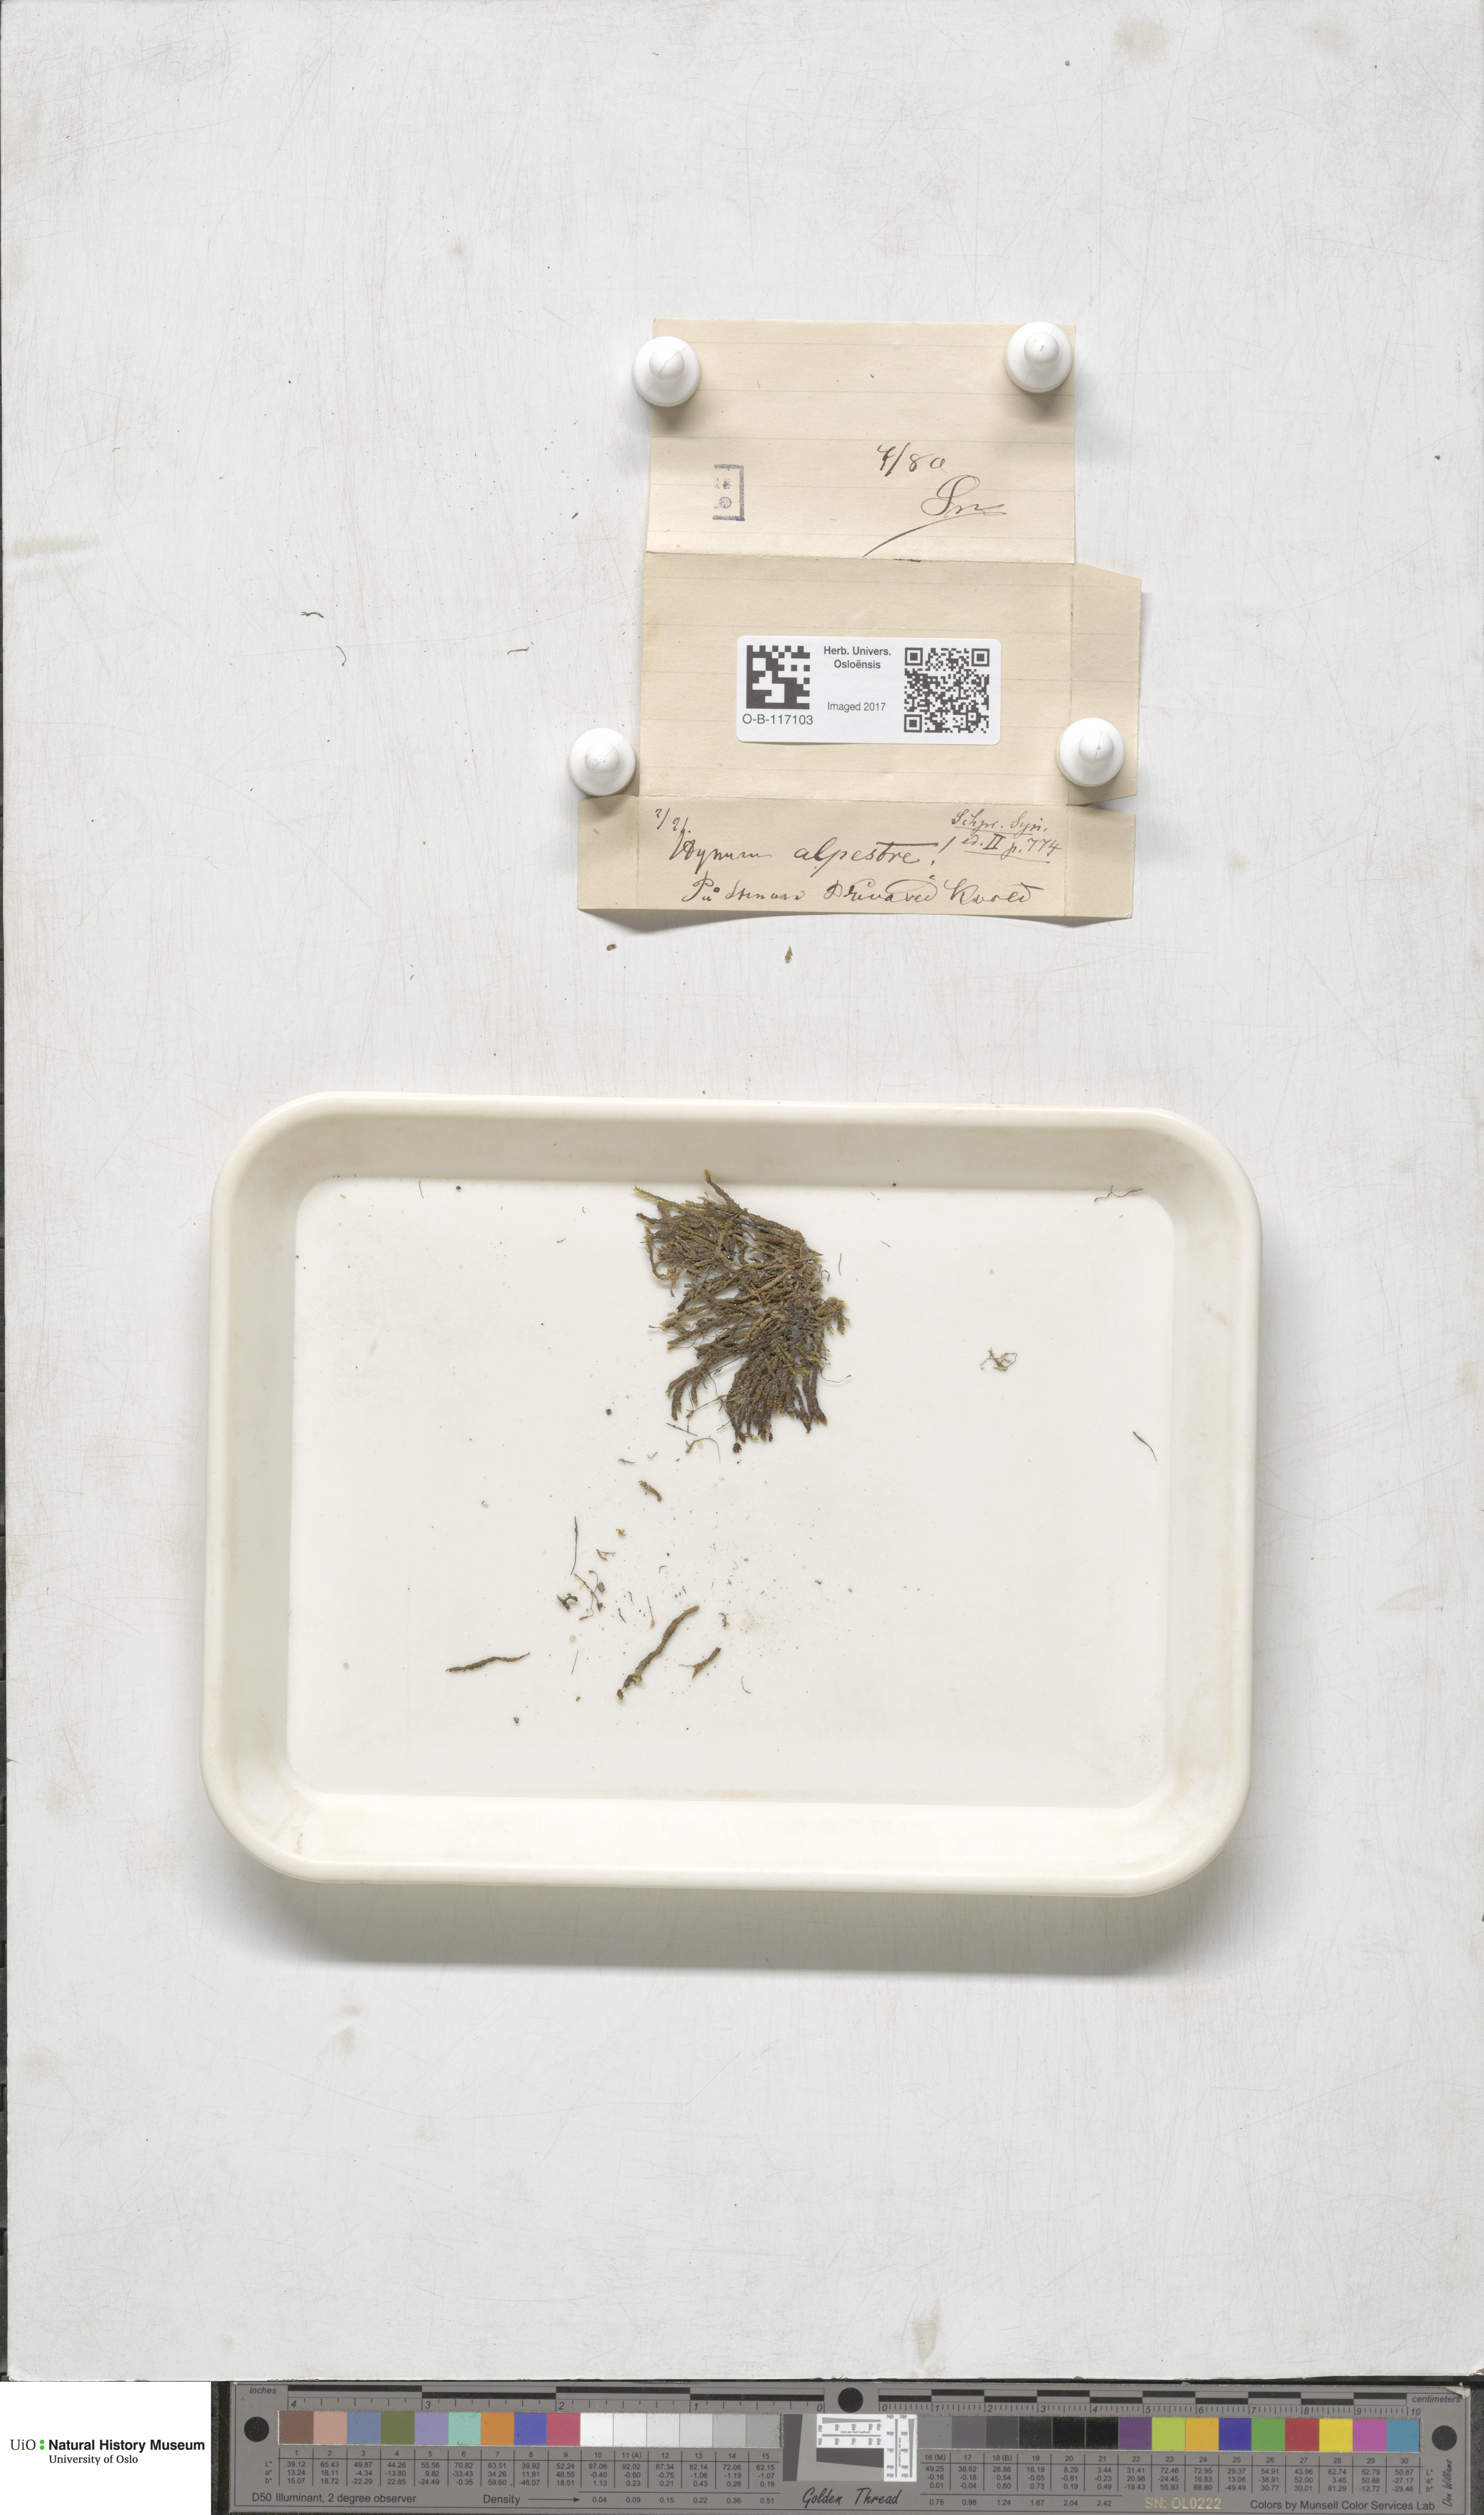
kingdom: Plantae
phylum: Bryophyta
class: Bryopsida
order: Hypnales
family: Amblystegiaceae
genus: Platyhypnum
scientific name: Platyhypnum alpestre
